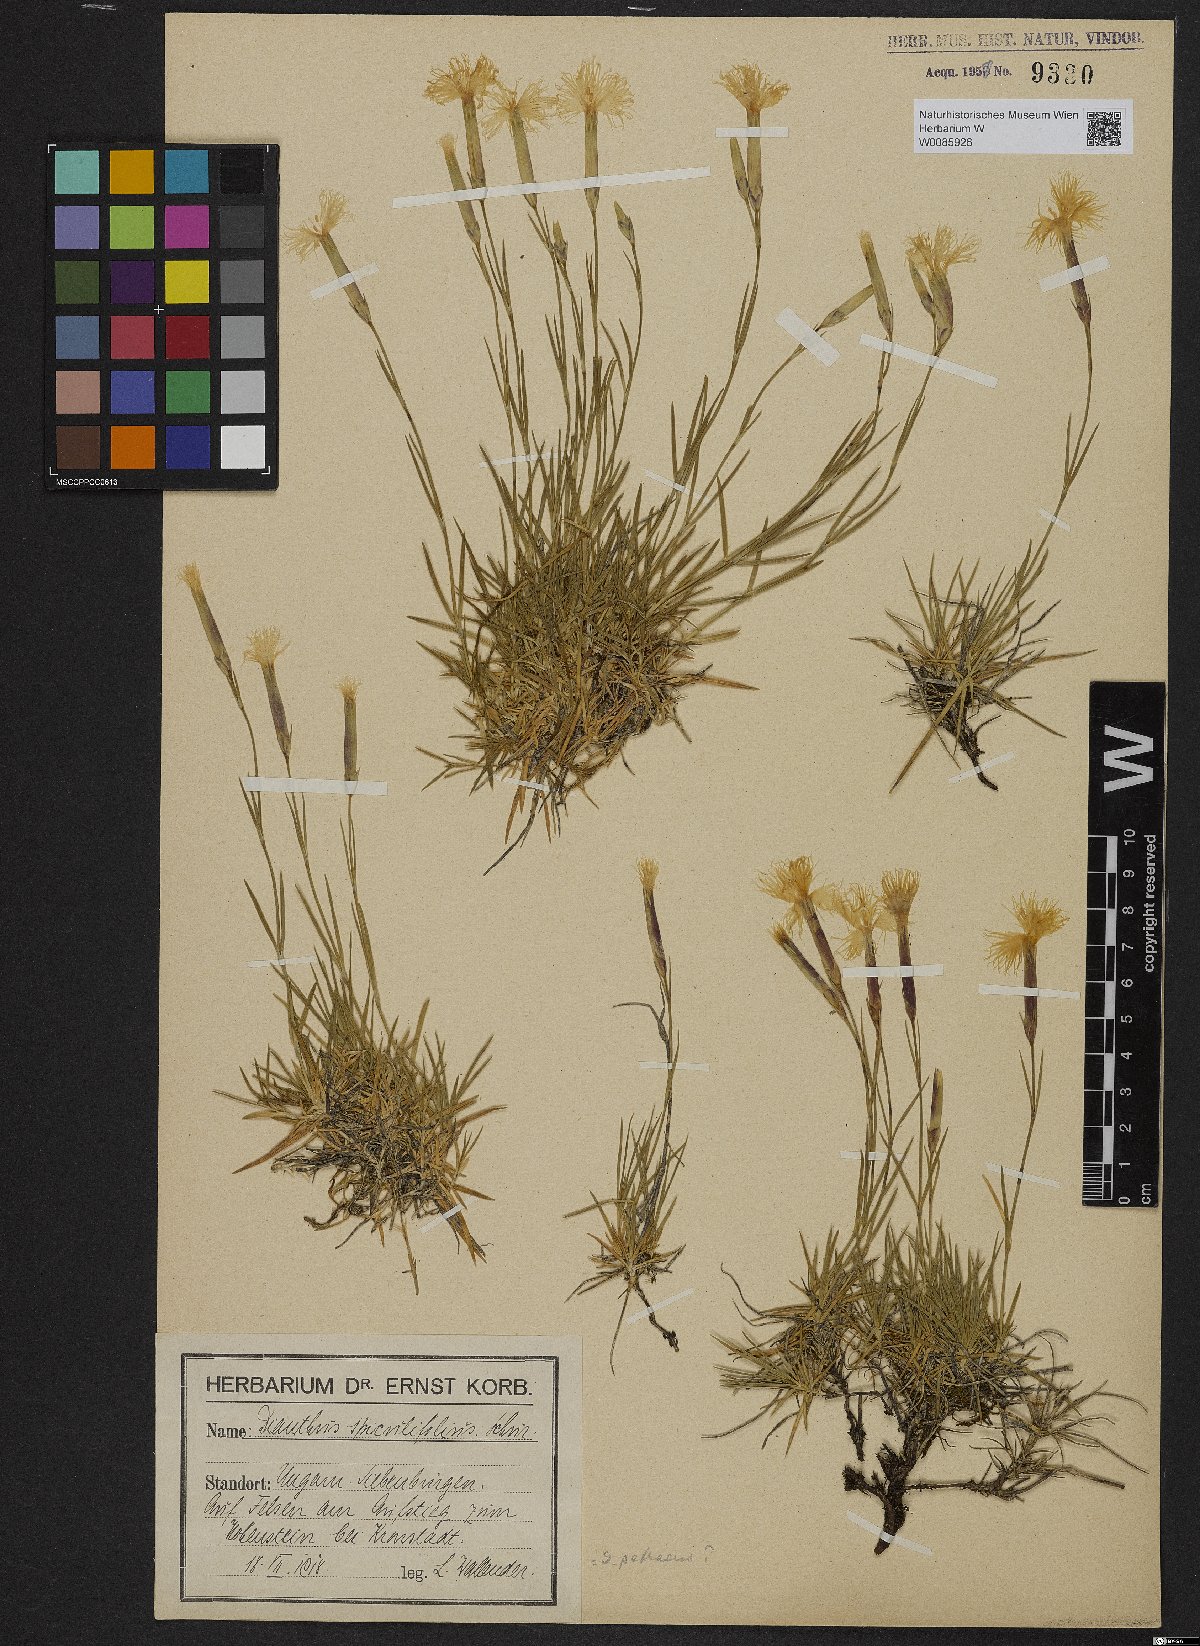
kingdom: Plantae
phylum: Tracheophyta
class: Magnoliopsida
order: Caryophyllales
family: Caryophyllaceae
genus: Dianthus
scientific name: Dianthus spiculifolius
